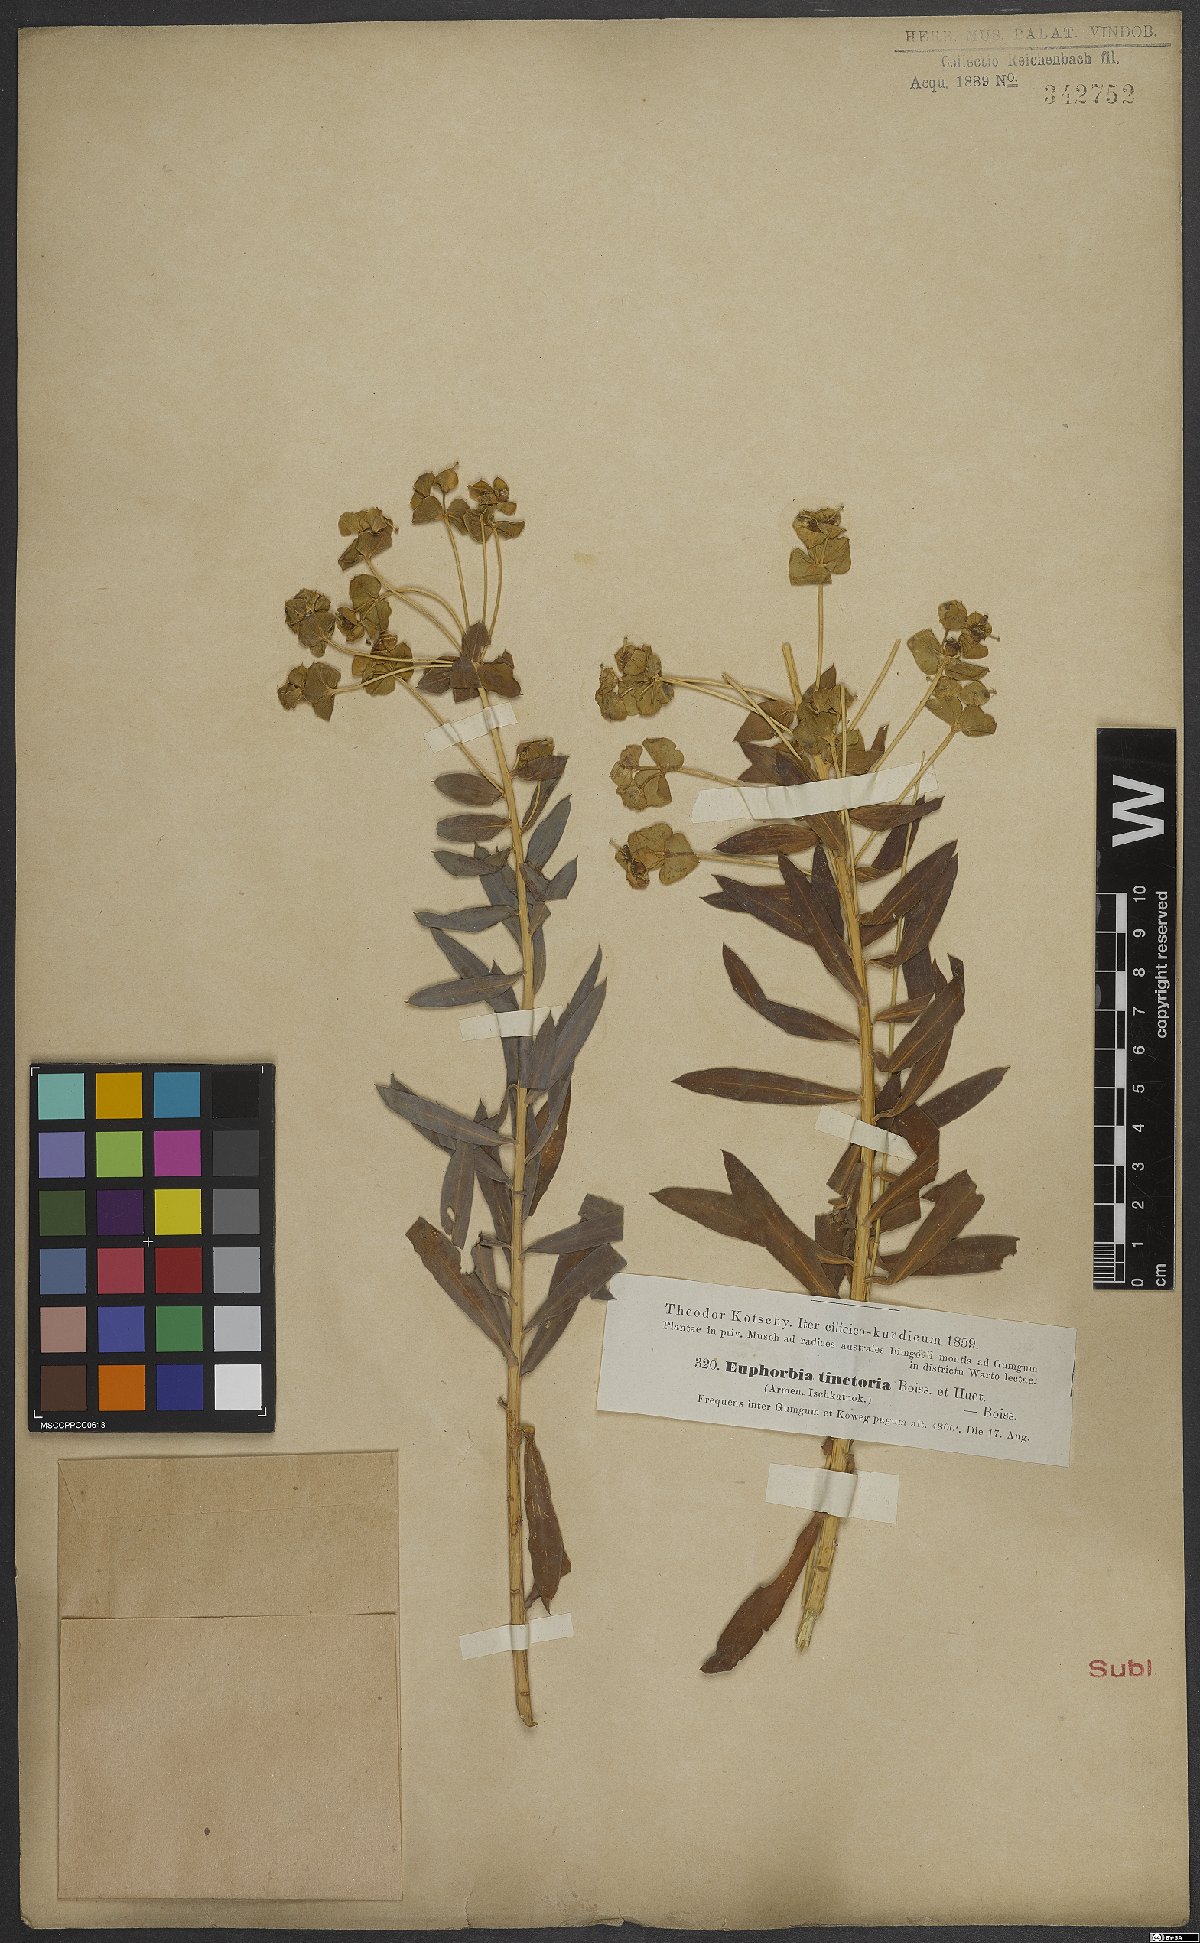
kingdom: Plantae
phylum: Tracheophyta
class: Magnoliopsida
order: Malpighiales
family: Euphorbiaceae
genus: Euphorbia
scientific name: Euphorbia macroclada
